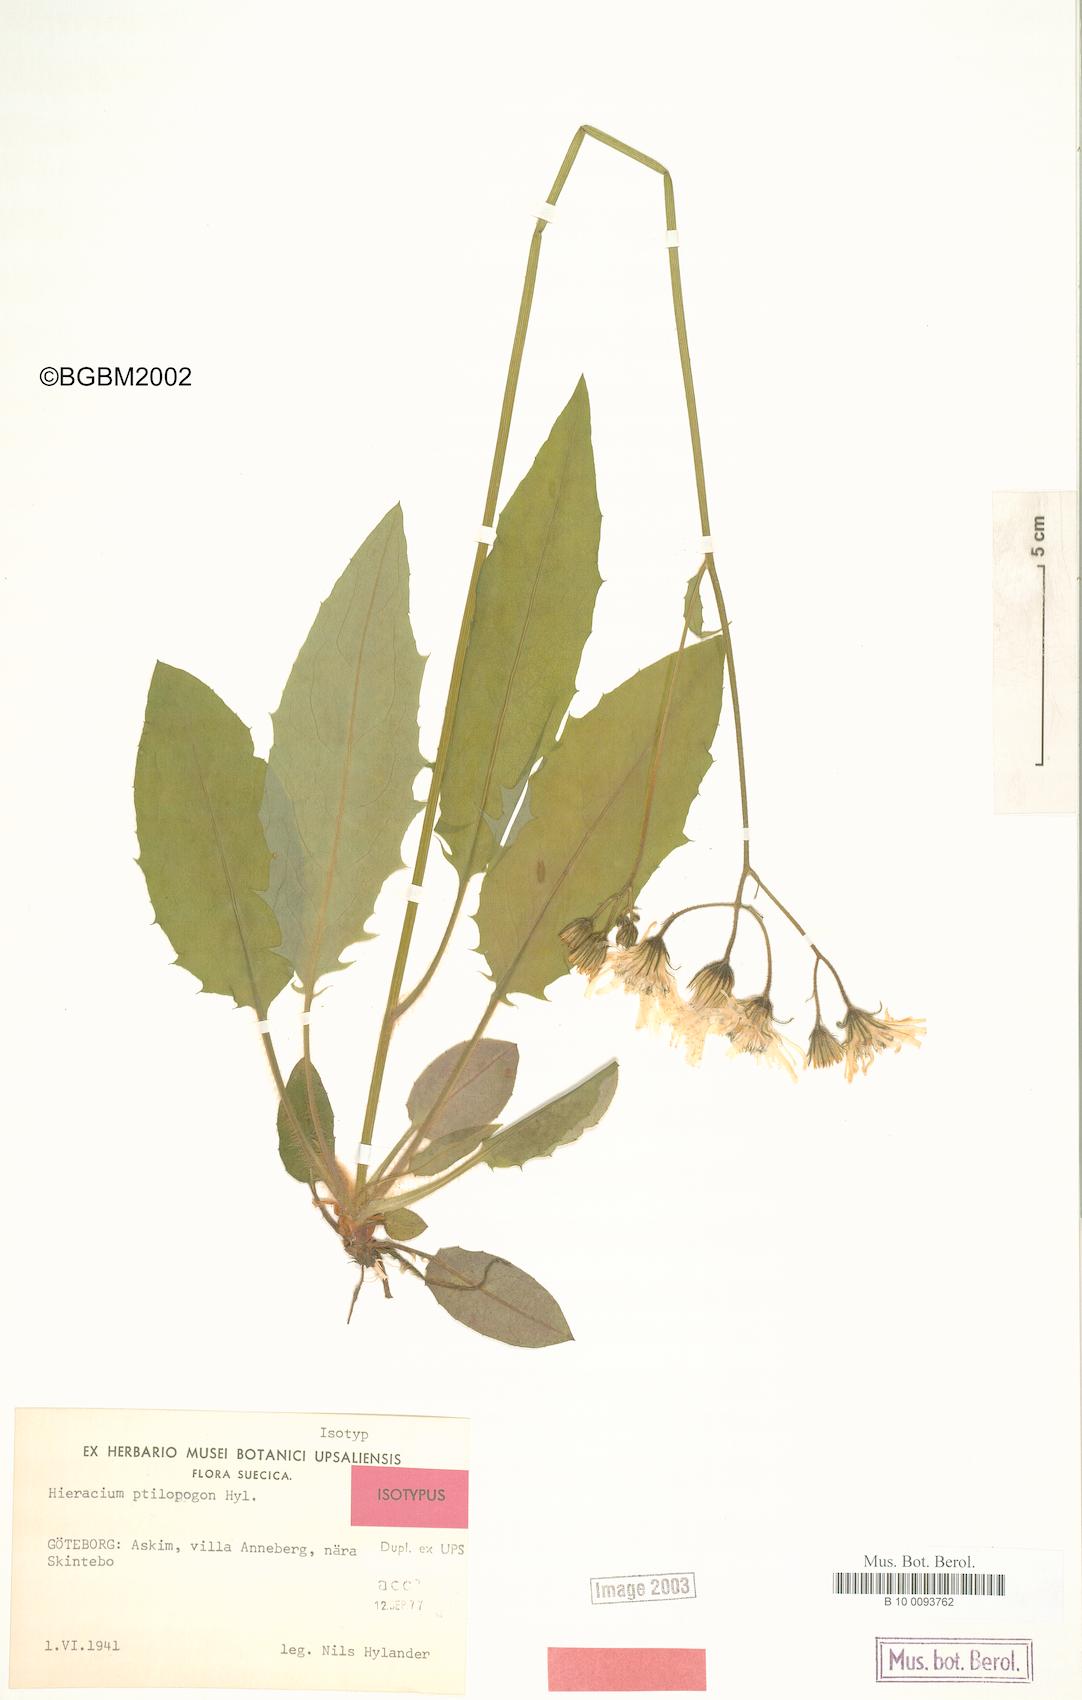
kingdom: Plantae
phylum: Tracheophyta
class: Magnoliopsida
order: Asterales
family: Asteraceae
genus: Hieracium
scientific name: Hieracium ptilopogon
